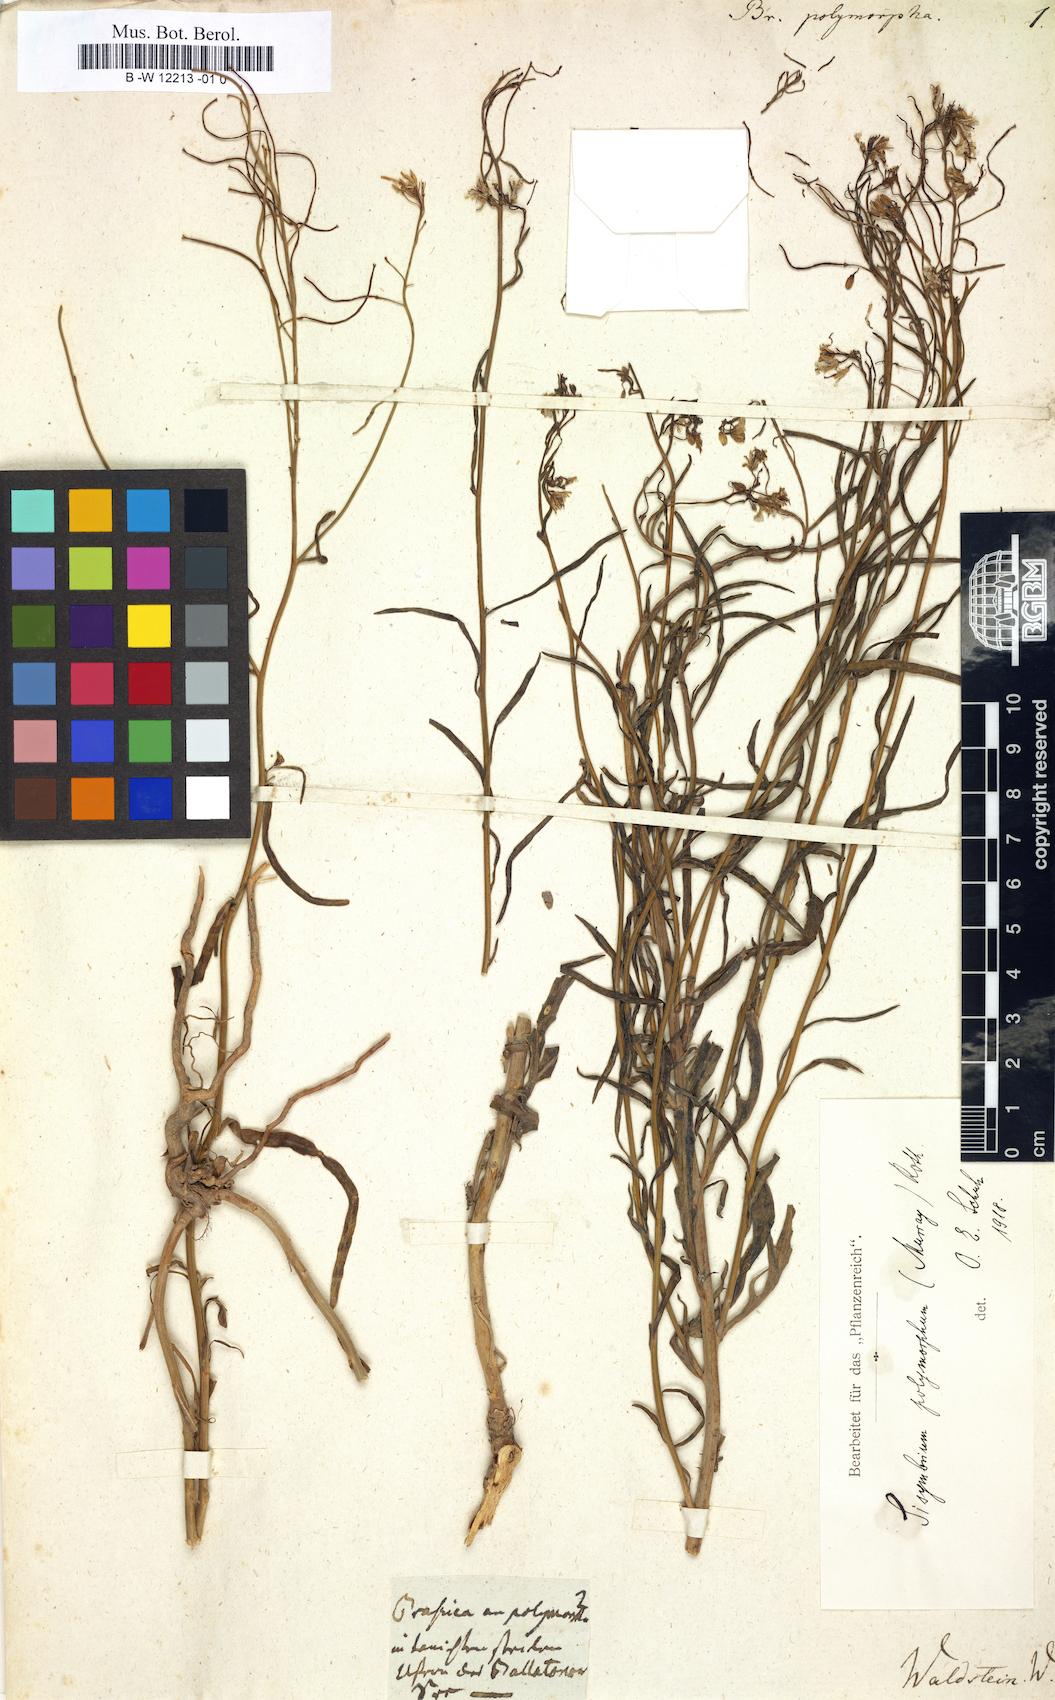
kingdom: Plantae
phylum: Tracheophyta
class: Magnoliopsida
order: Brassicales
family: Brassicaceae
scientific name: Brassicaceae
